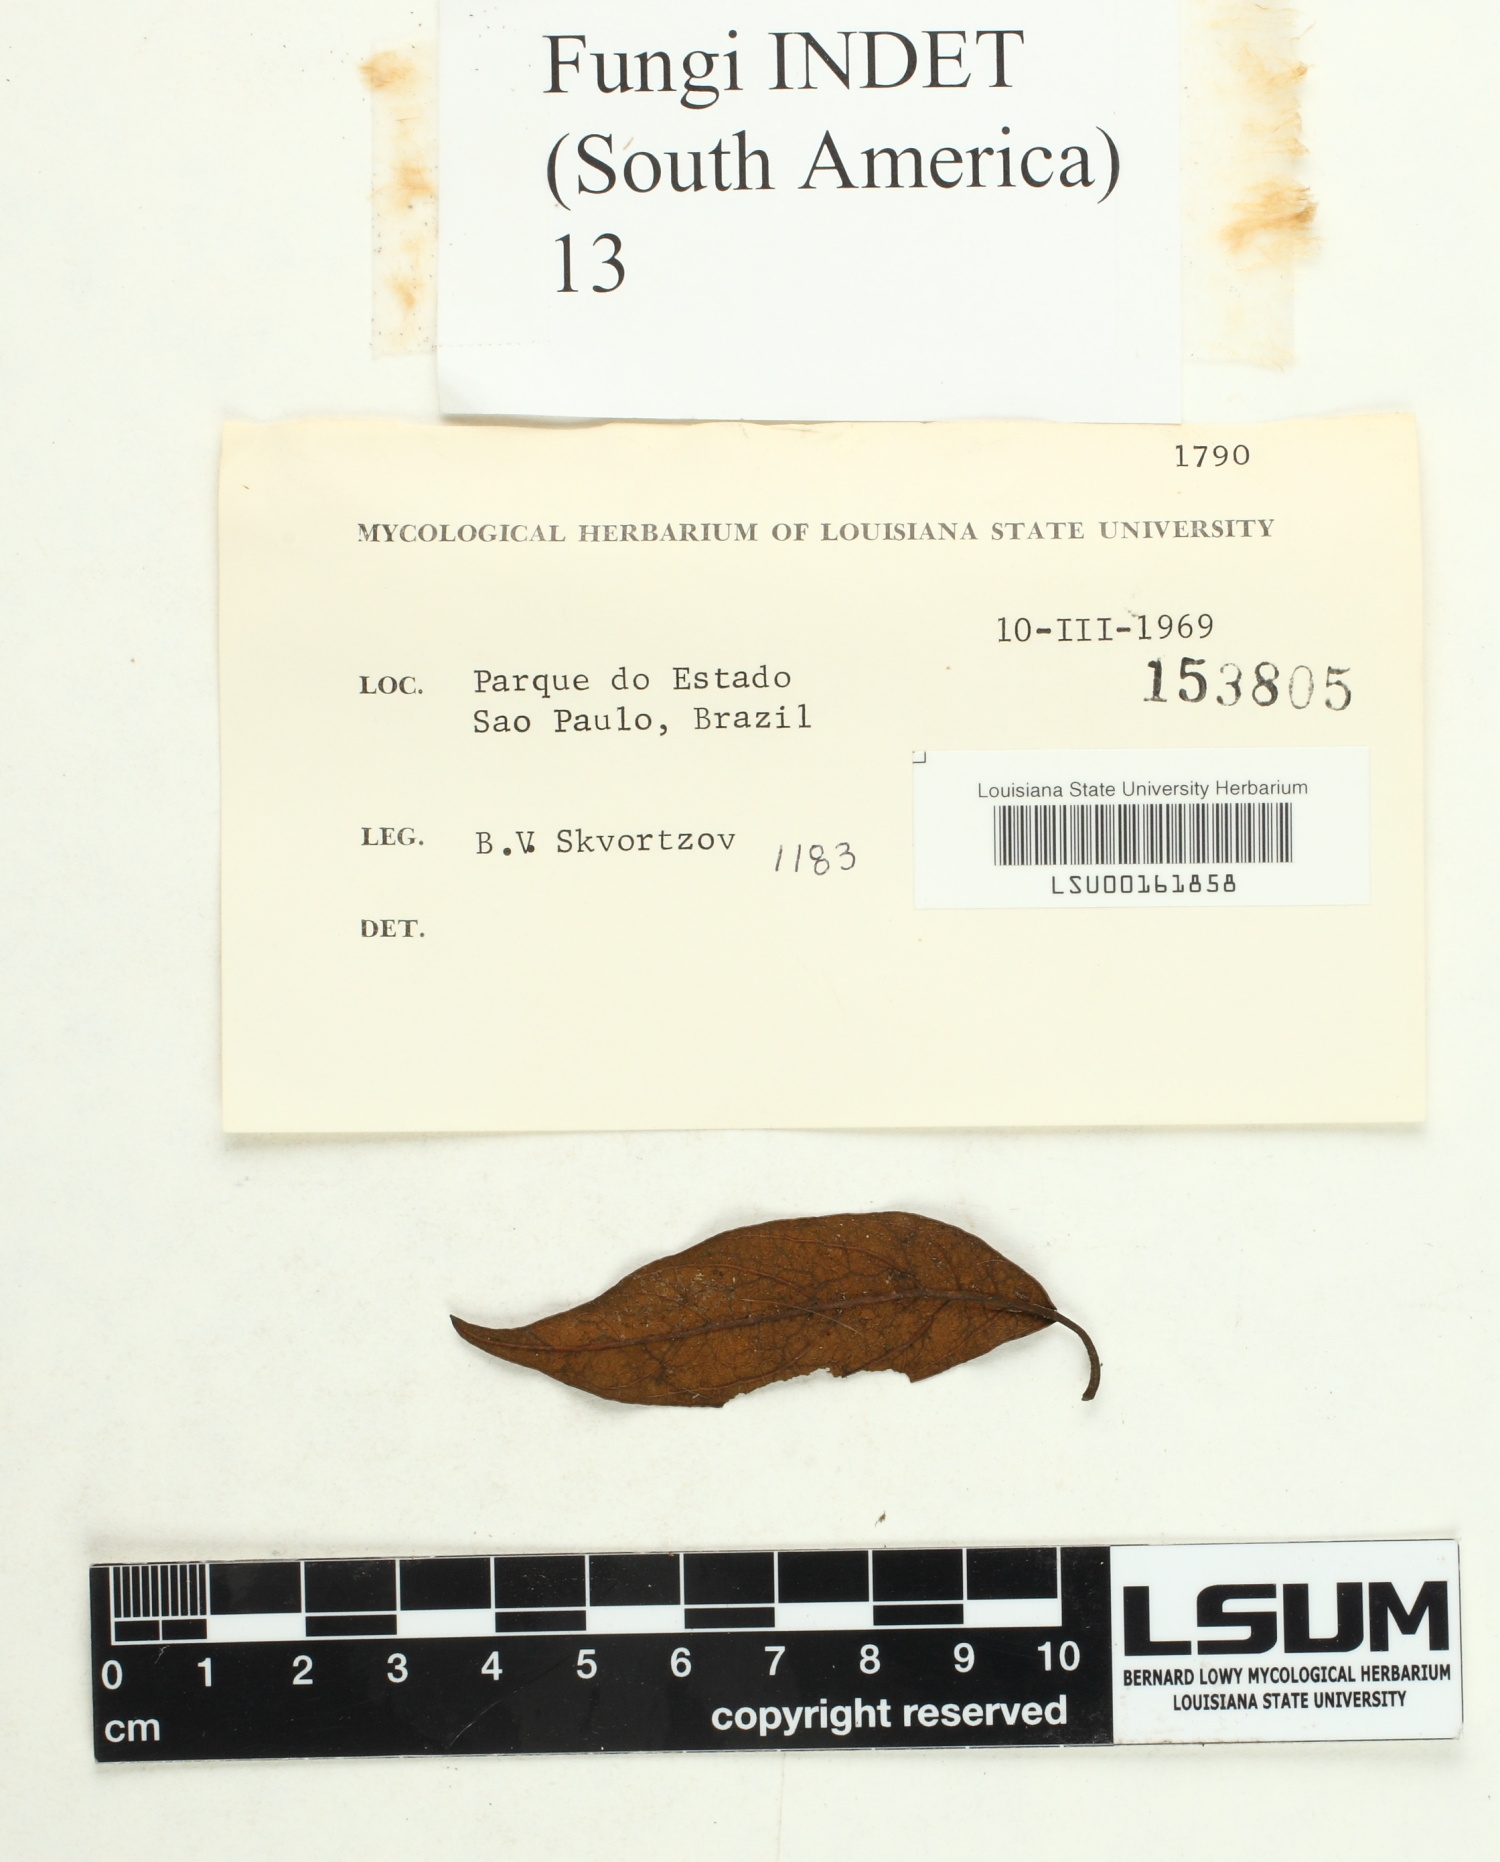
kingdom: Fungi
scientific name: Fungi
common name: Fungi
